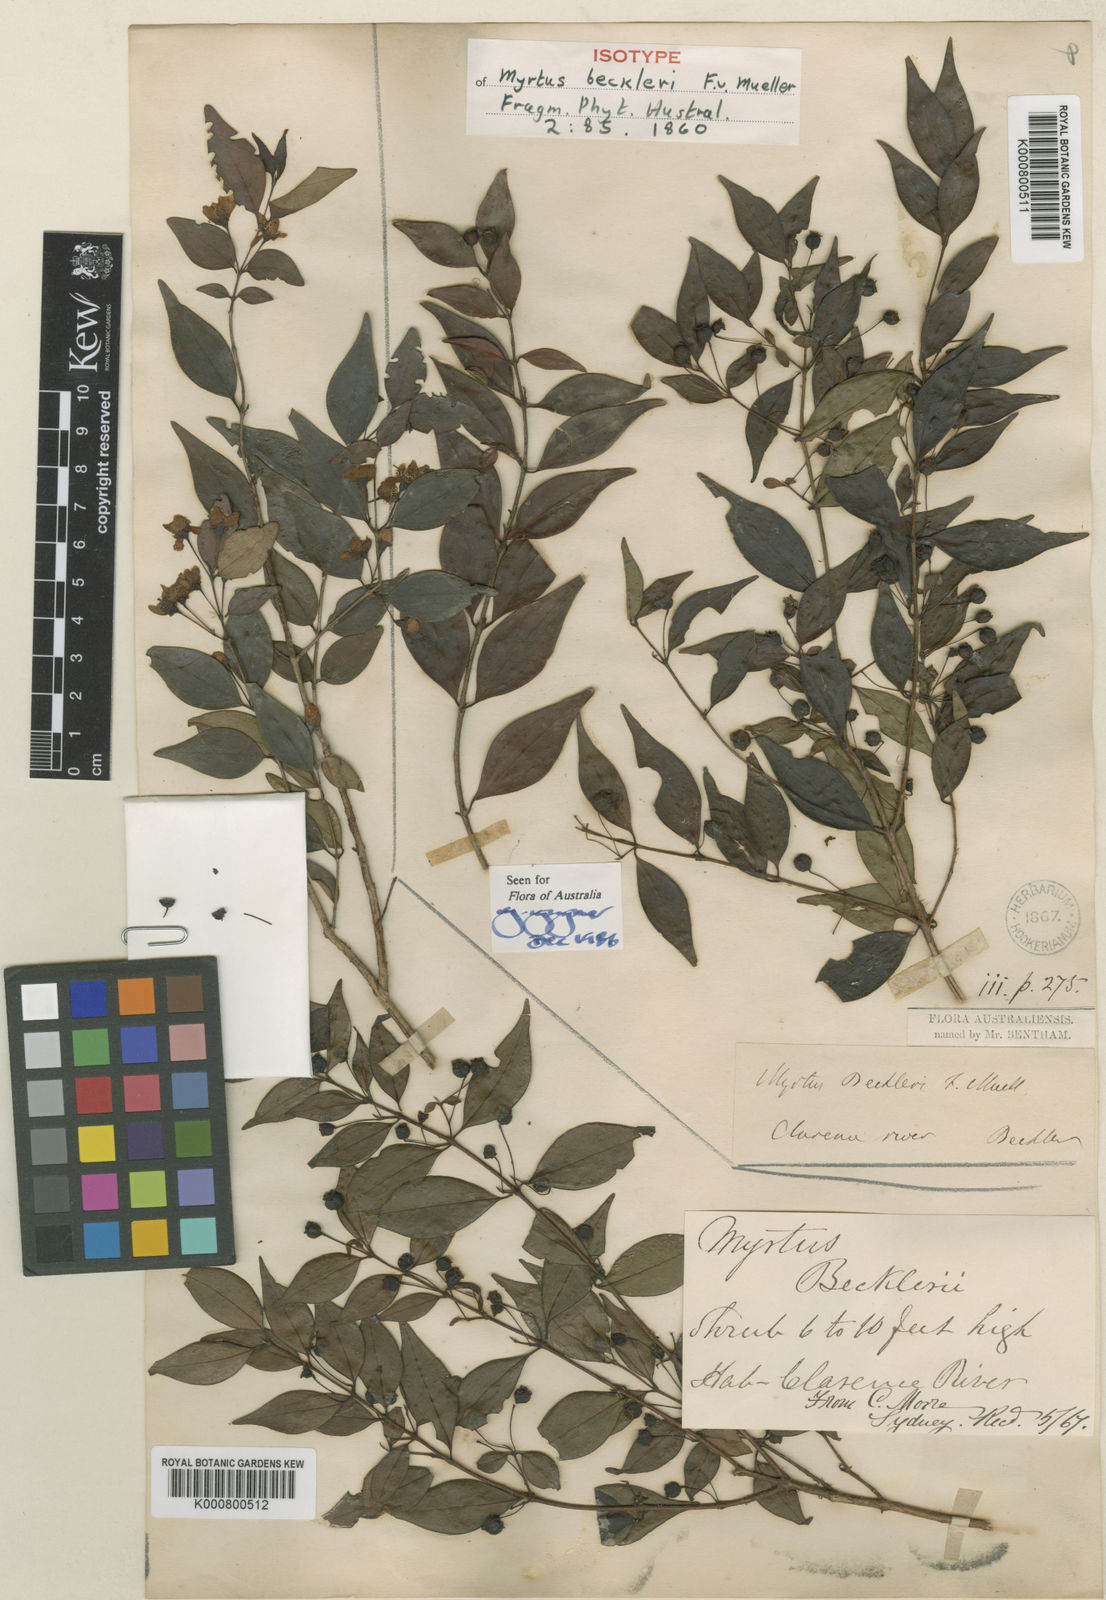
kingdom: Plantae
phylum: Tracheophyta
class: Magnoliopsida
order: Myrtales
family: Myrtaceae
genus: Archirhodomyrtus
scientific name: Archirhodomyrtus beckleri
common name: Beckler's myrtle
